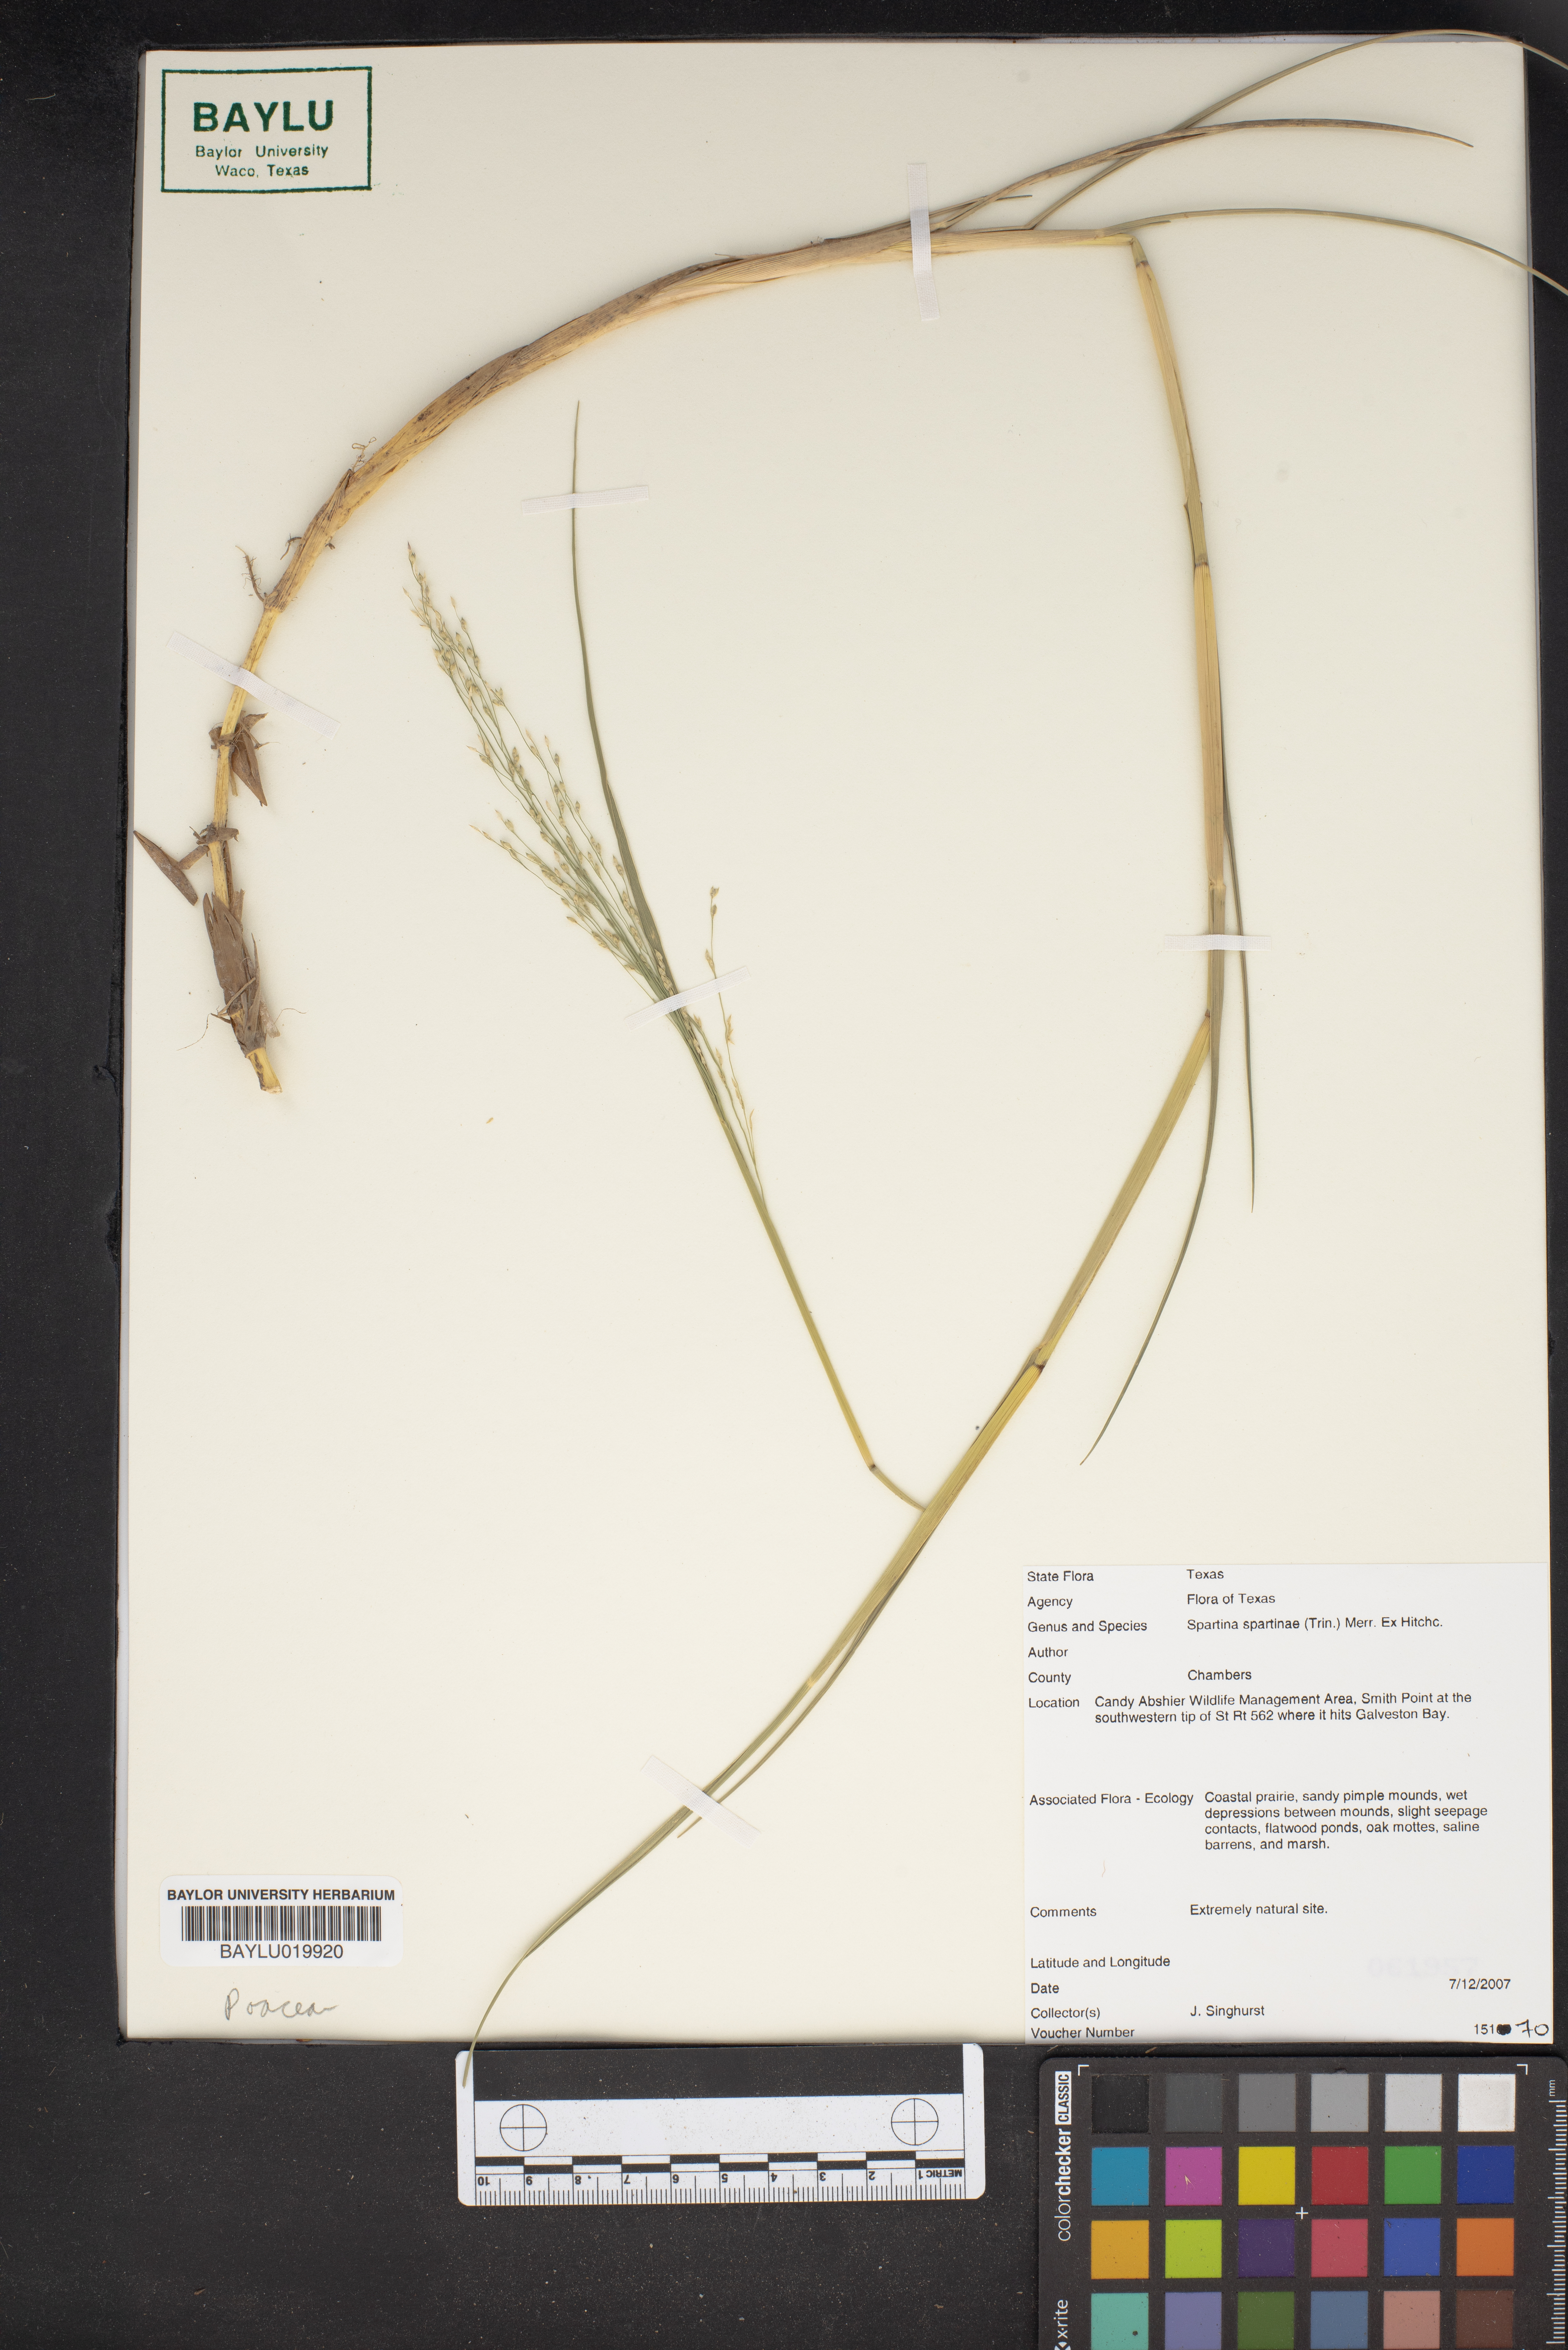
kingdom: Plantae
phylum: Tracheophyta
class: Liliopsida
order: Poales
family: Poaceae
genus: Sporobolus
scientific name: Sporobolus spartinae
